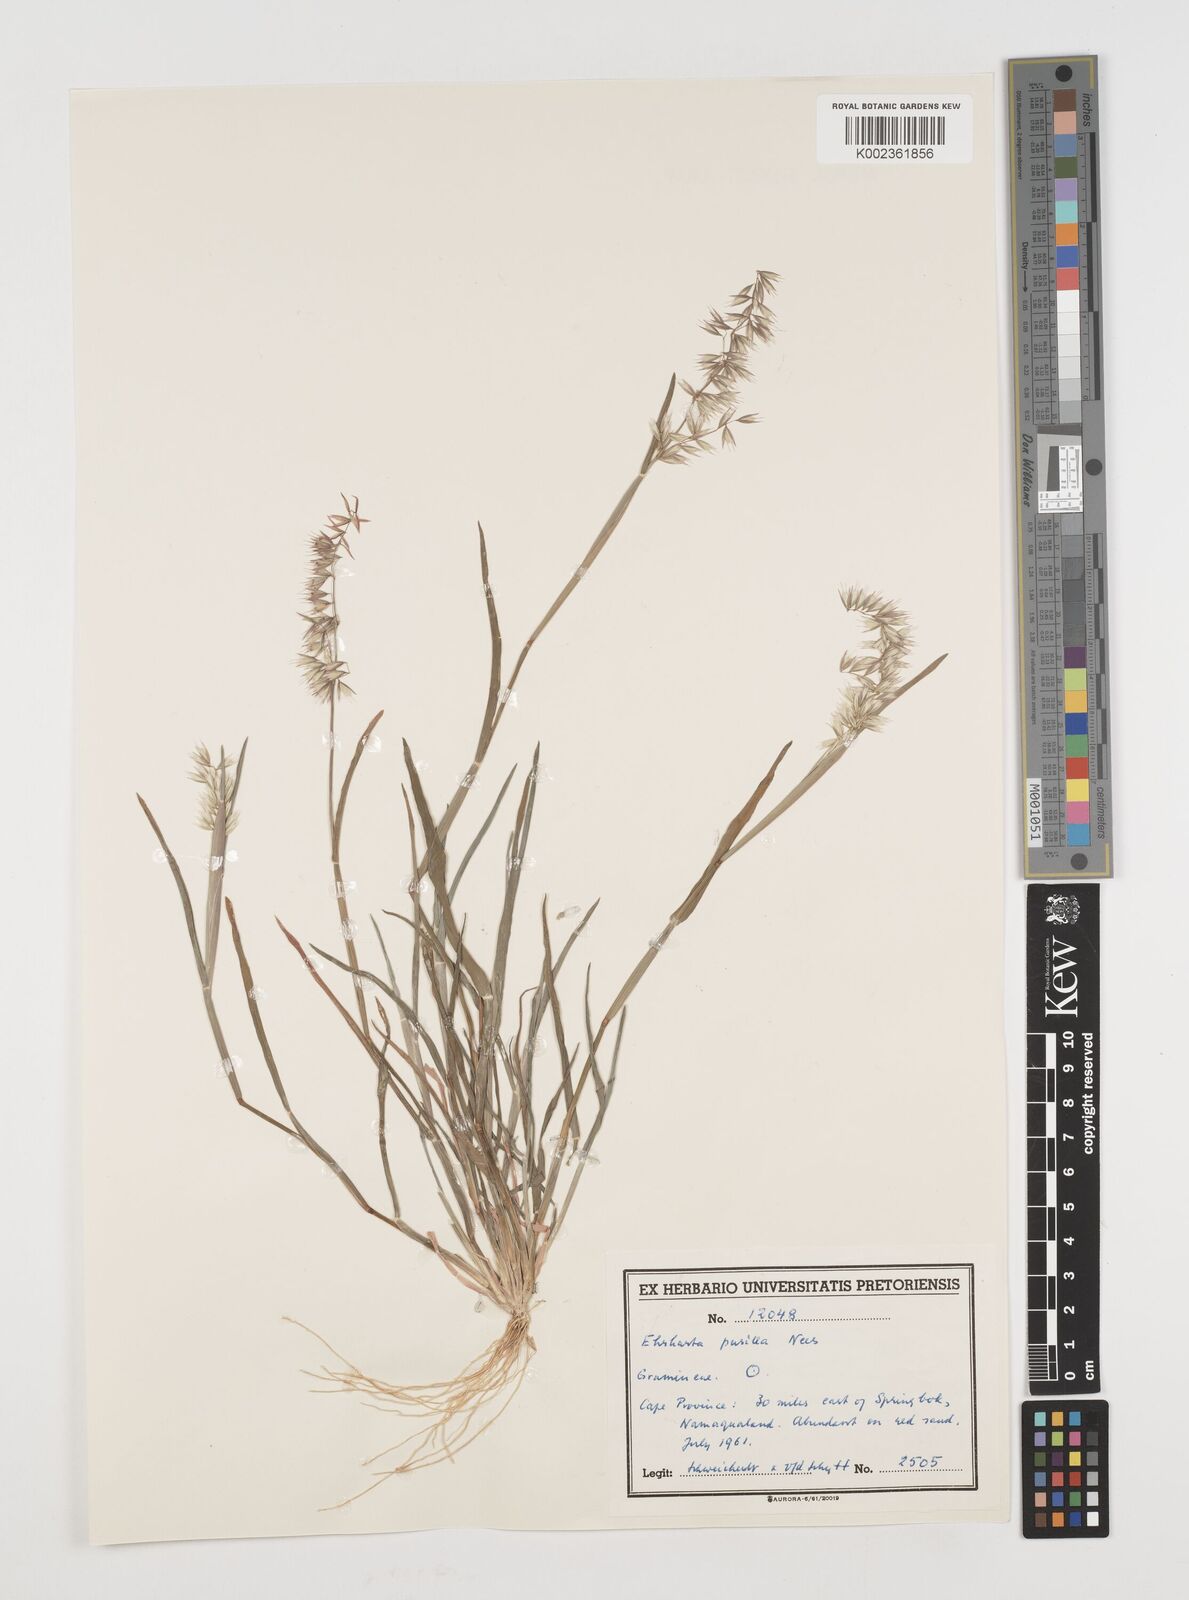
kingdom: Plantae
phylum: Tracheophyta
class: Liliopsida
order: Poales
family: Poaceae
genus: Ehrharta
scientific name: Ehrharta pusilla
